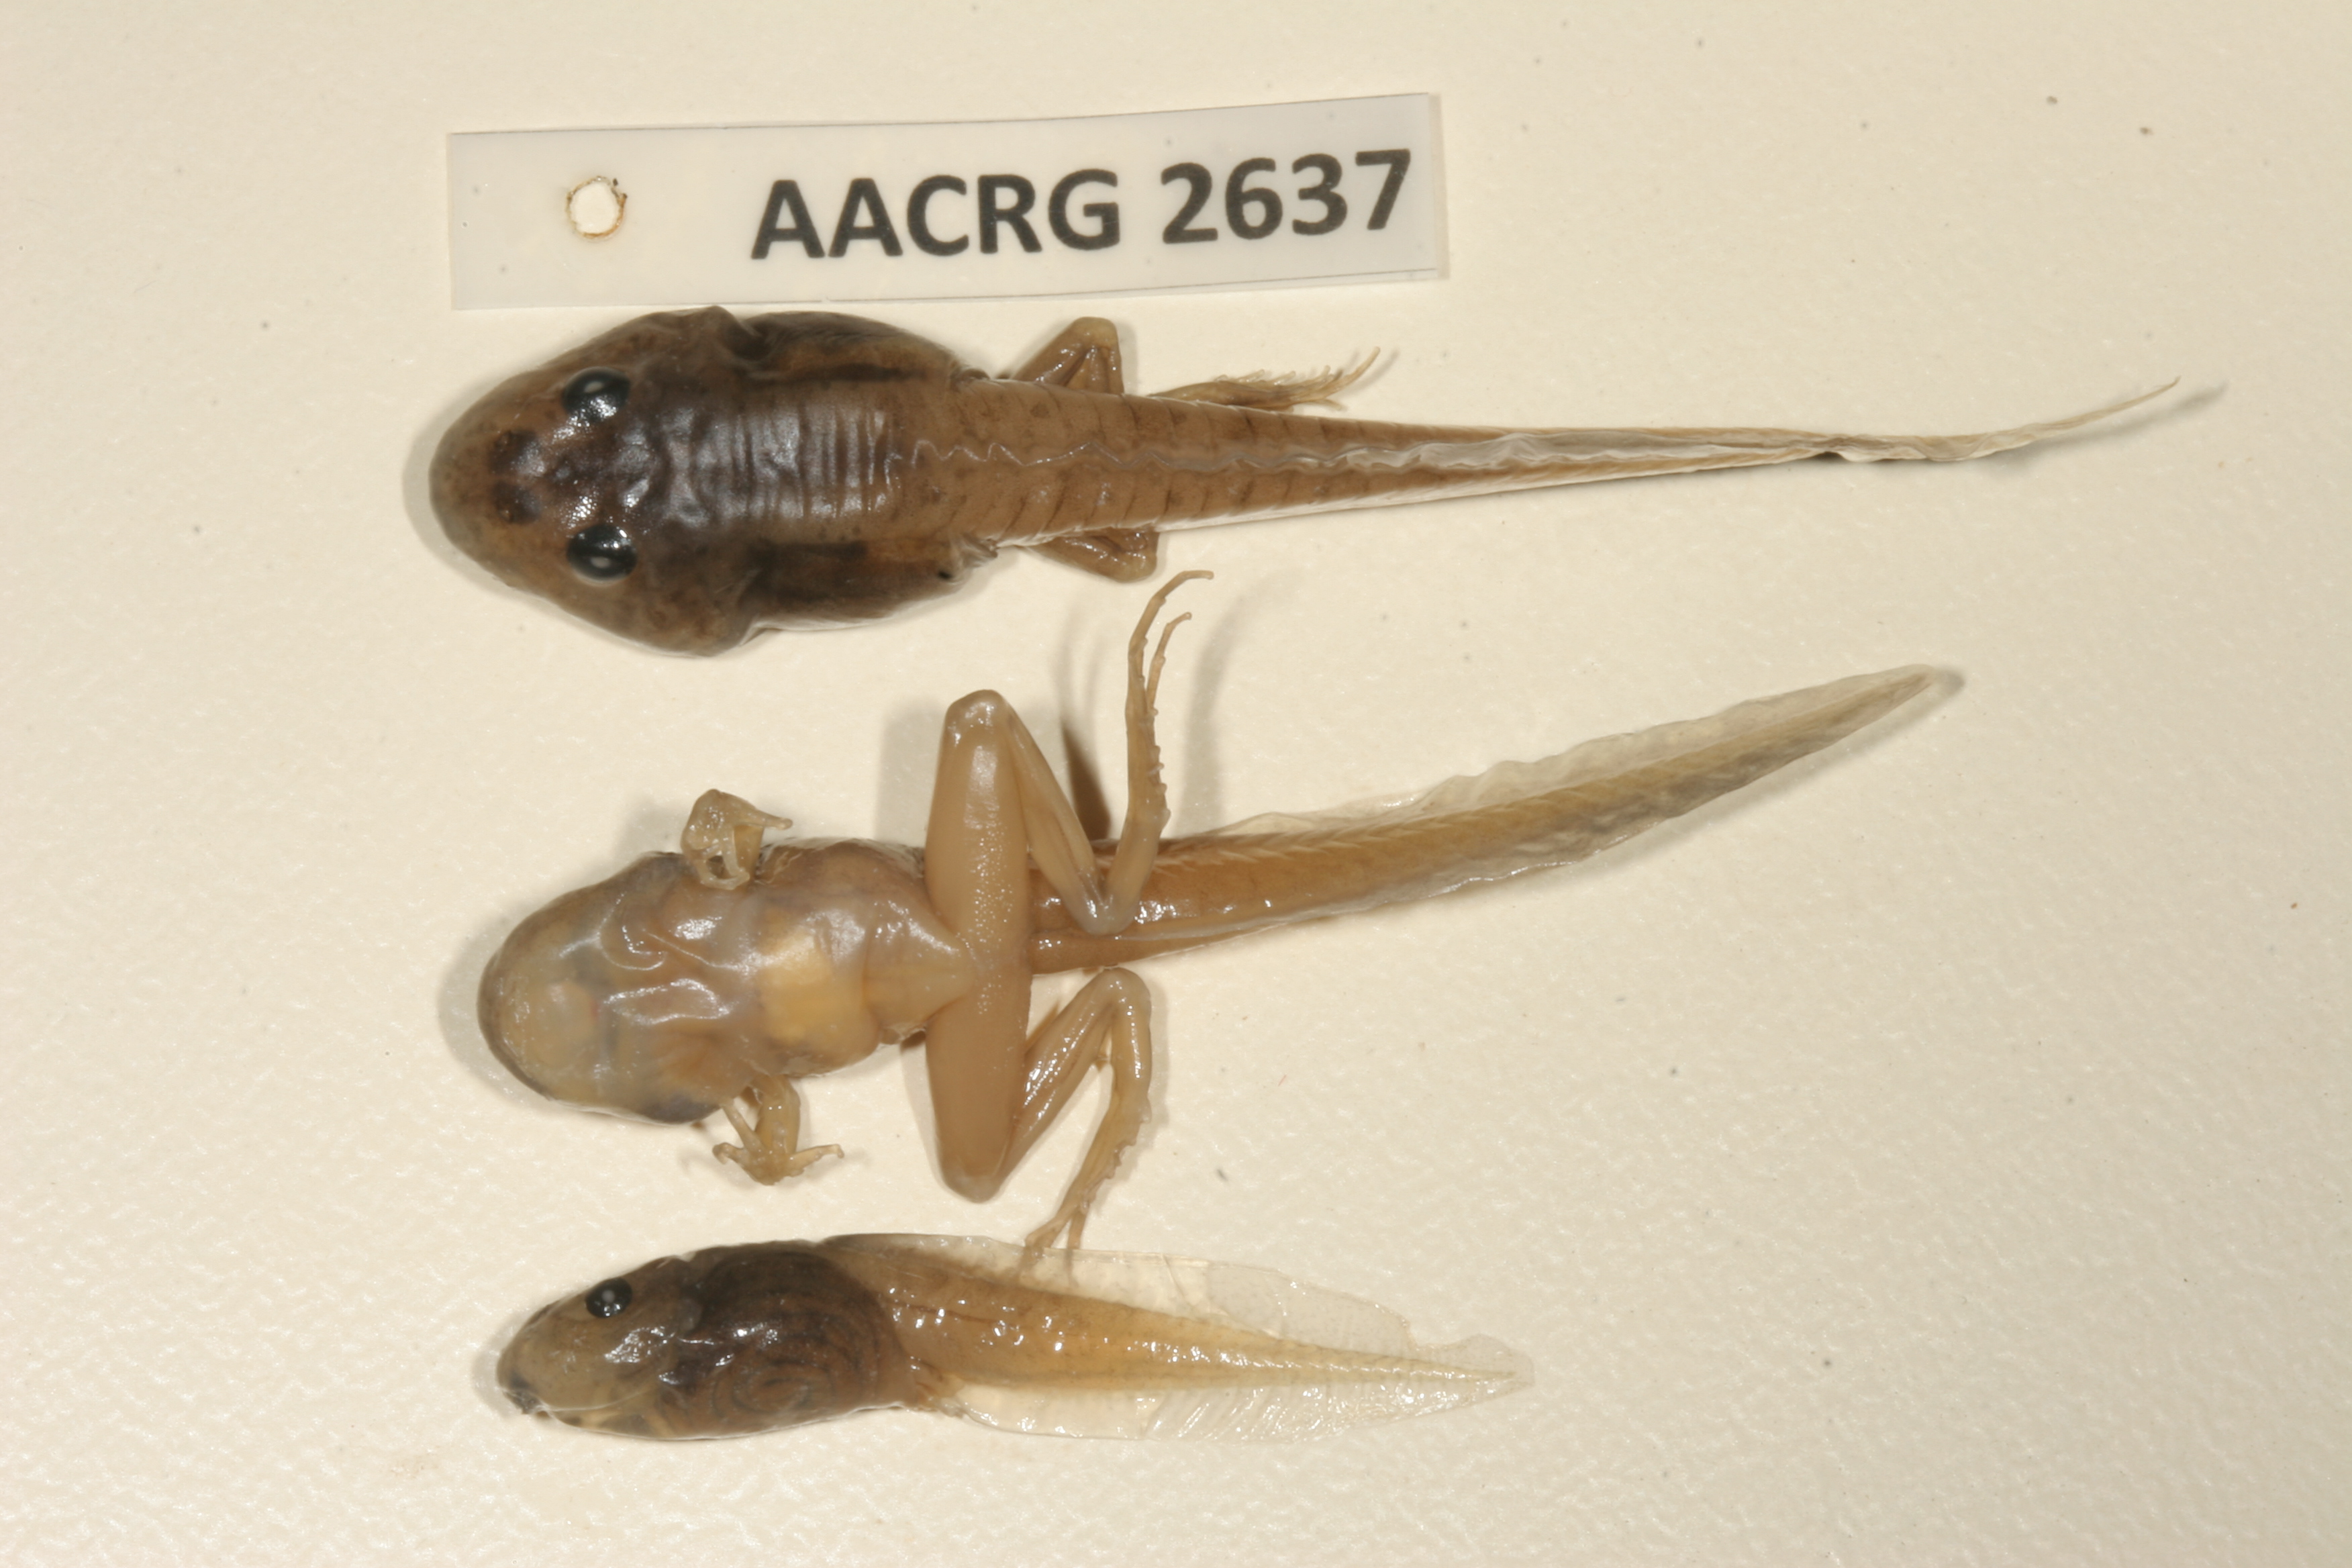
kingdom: Animalia
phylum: Chordata
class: Amphibia
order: Anura
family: Pyxicephalidae
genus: Strongylopus
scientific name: Strongylopus grayii
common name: Gray's stream frog
